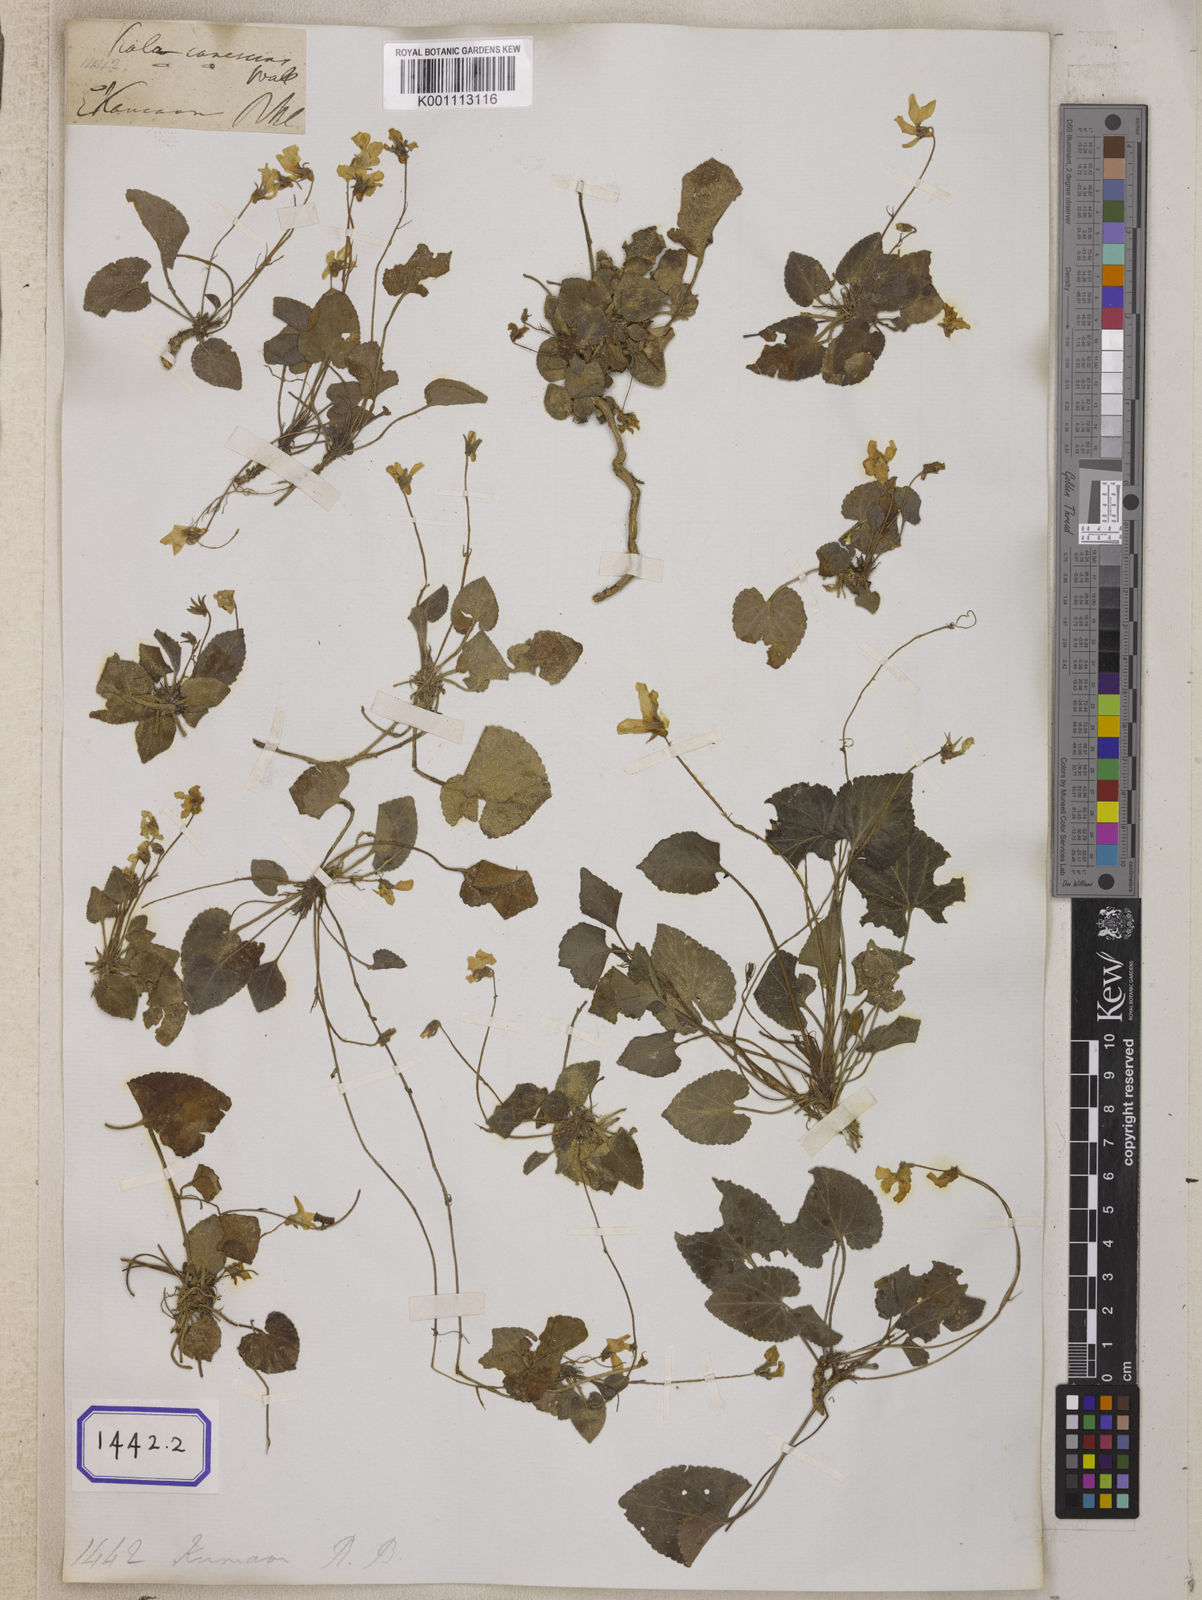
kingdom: Plantae
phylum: Tracheophyta
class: Magnoliopsida
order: Malpighiales
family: Violaceae
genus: Viola
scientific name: Viola wallichiana
